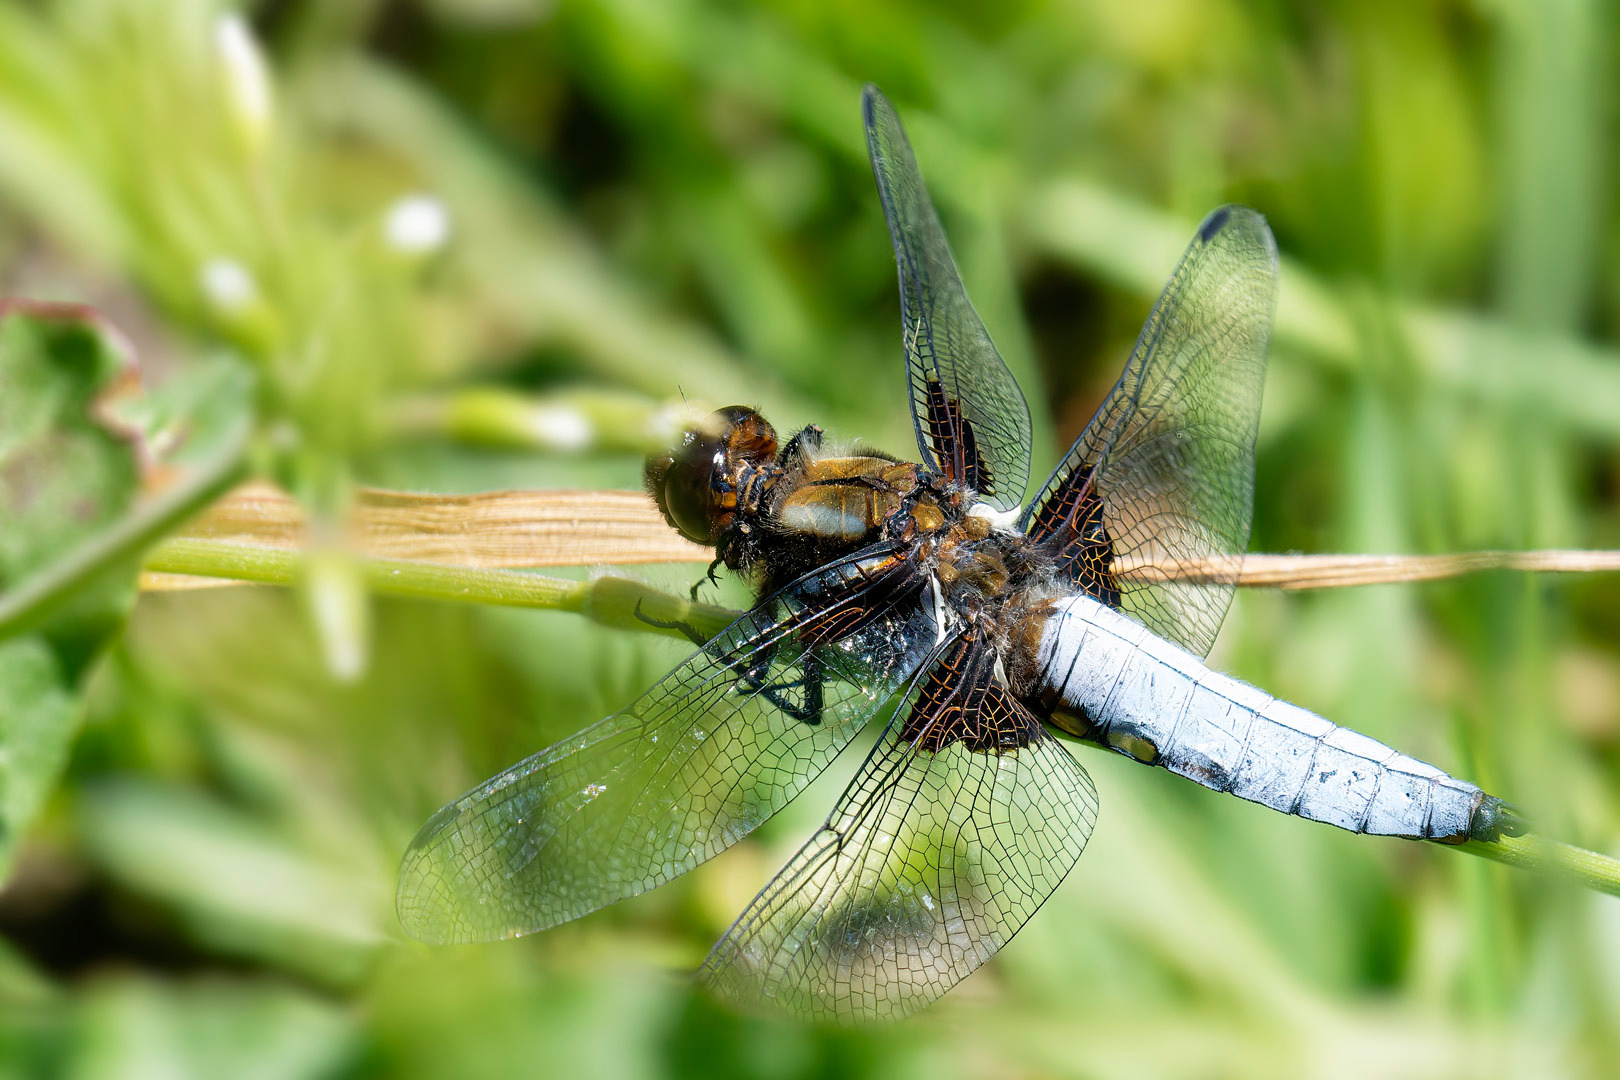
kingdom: Animalia
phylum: Arthropoda
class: Insecta
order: Odonata
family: Libellulidae
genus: Libellula
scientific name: Libellula depressa
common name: Blå libel
